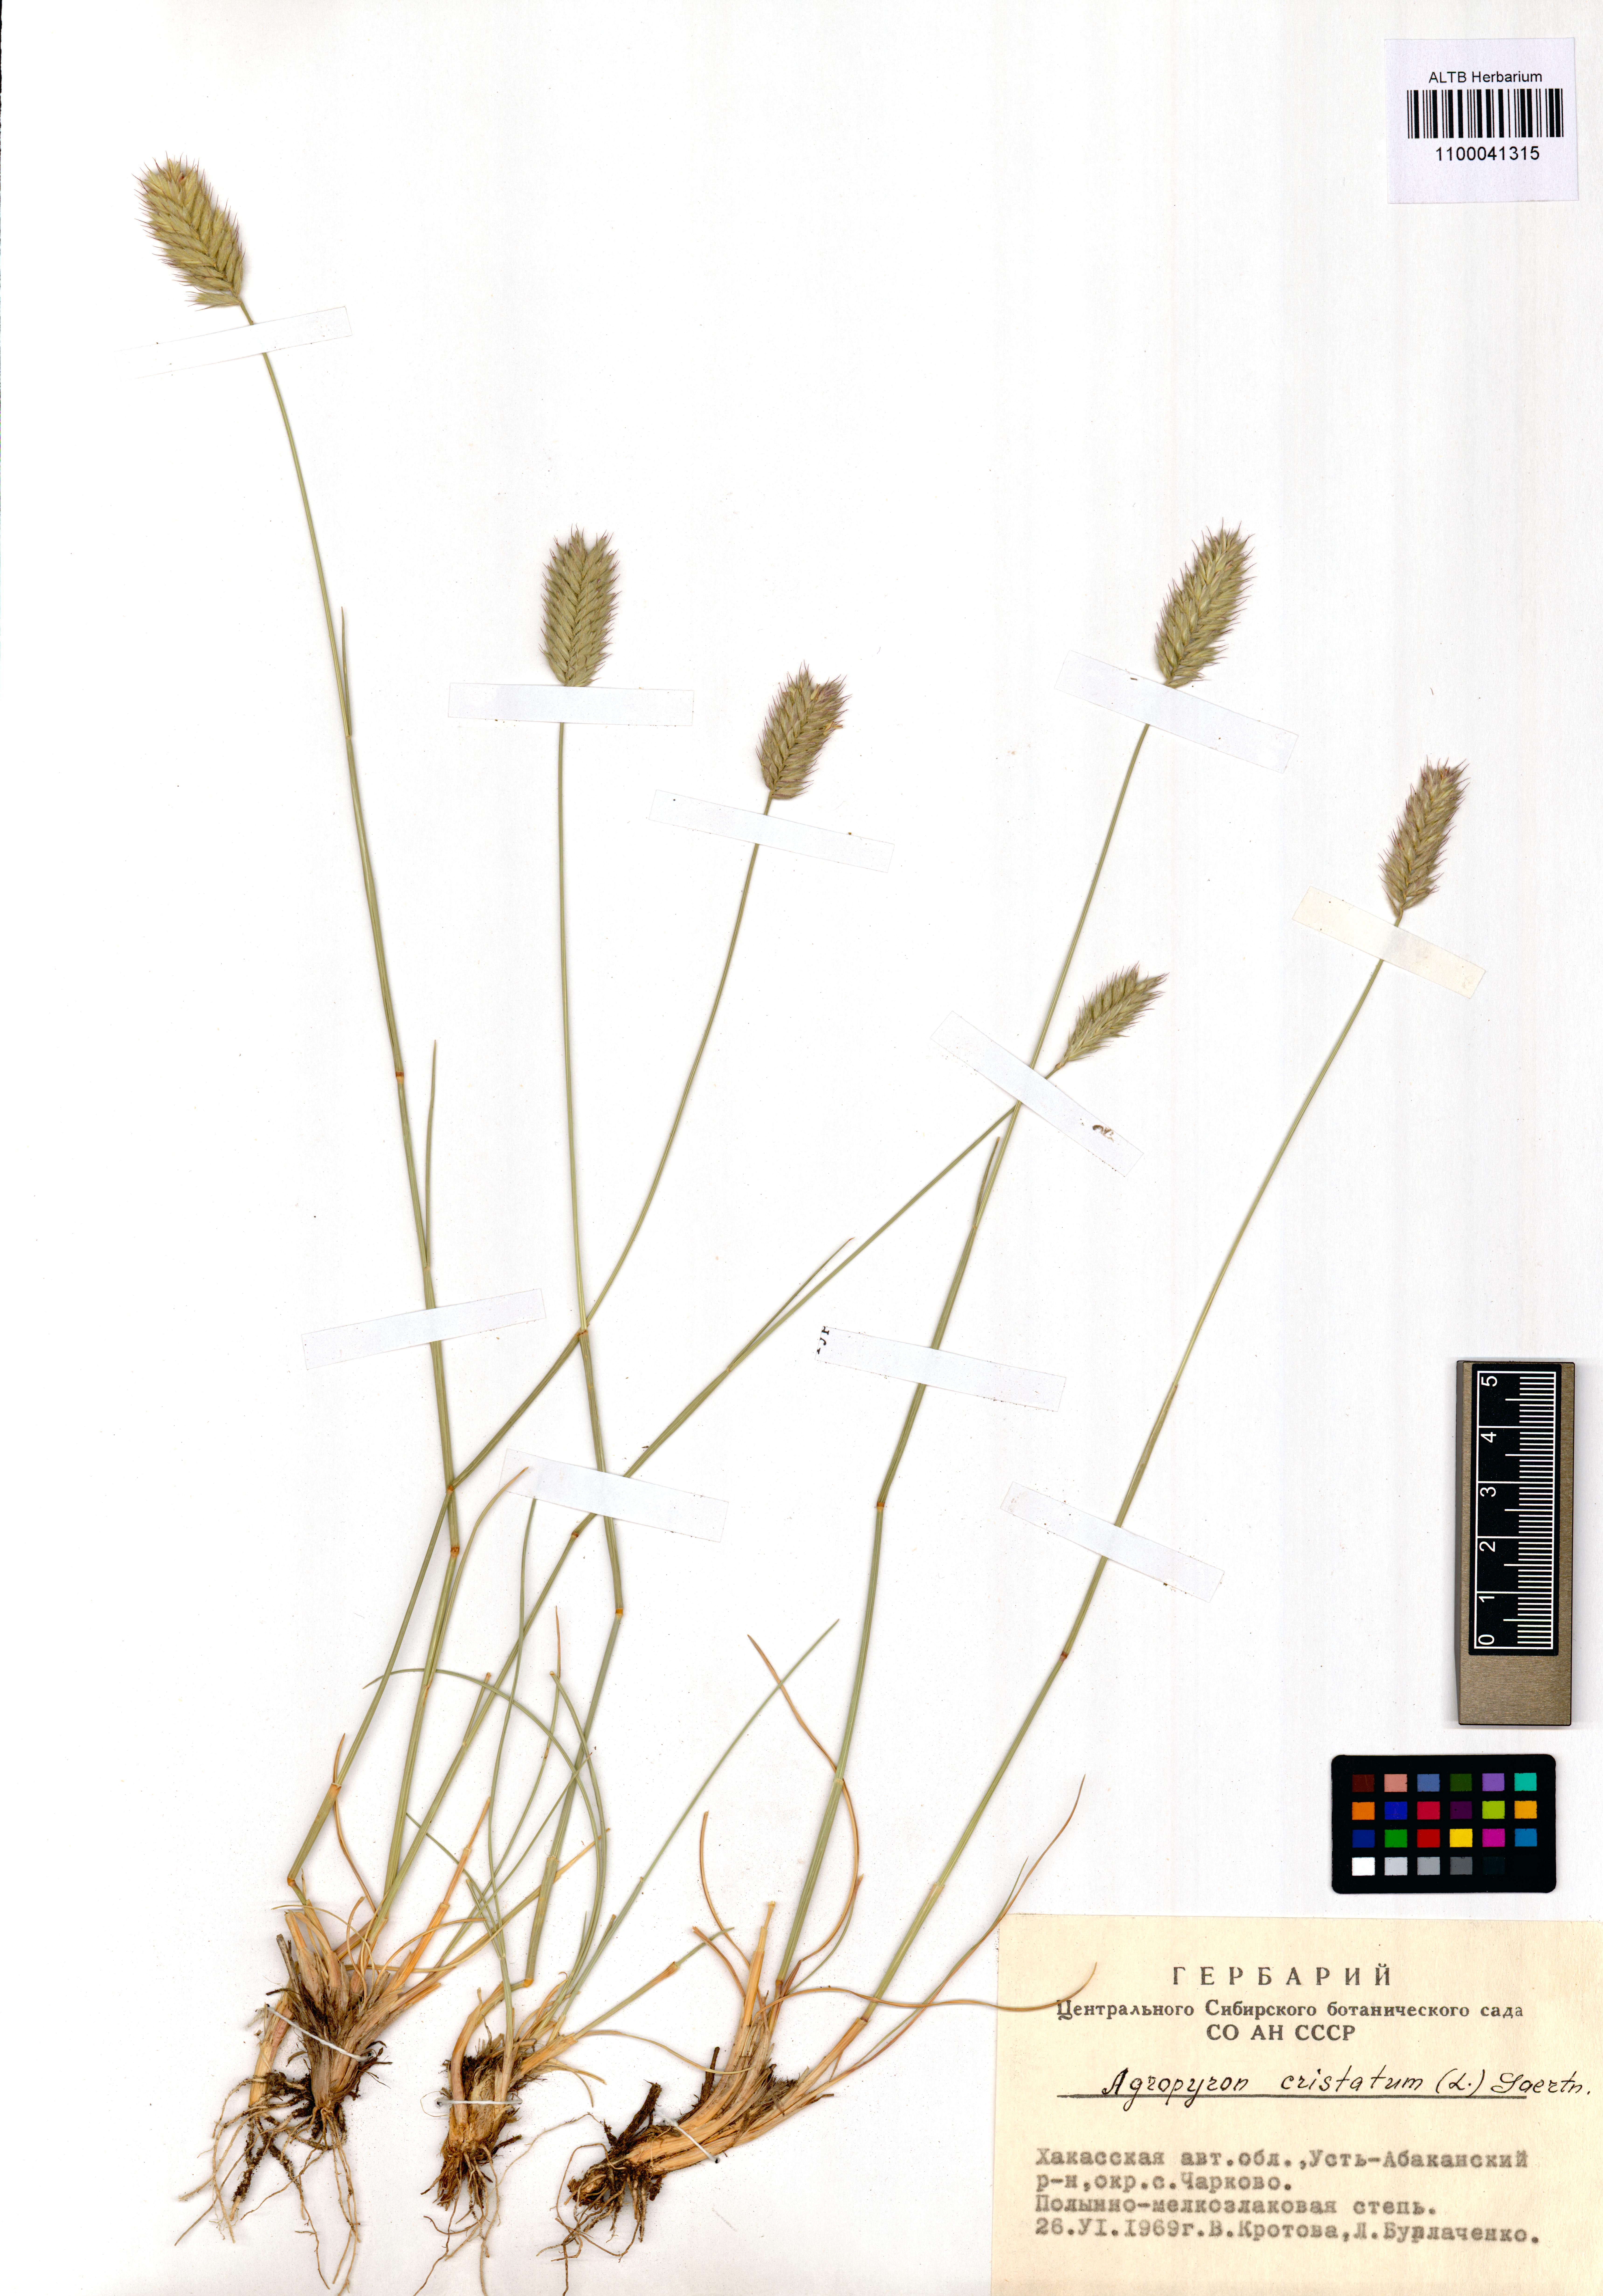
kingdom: Plantae
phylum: Tracheophyta
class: Liliopsida
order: Poales
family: Poaceae
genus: Agropyron
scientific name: Agropyron cristatum
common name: Crested wheatgrass
